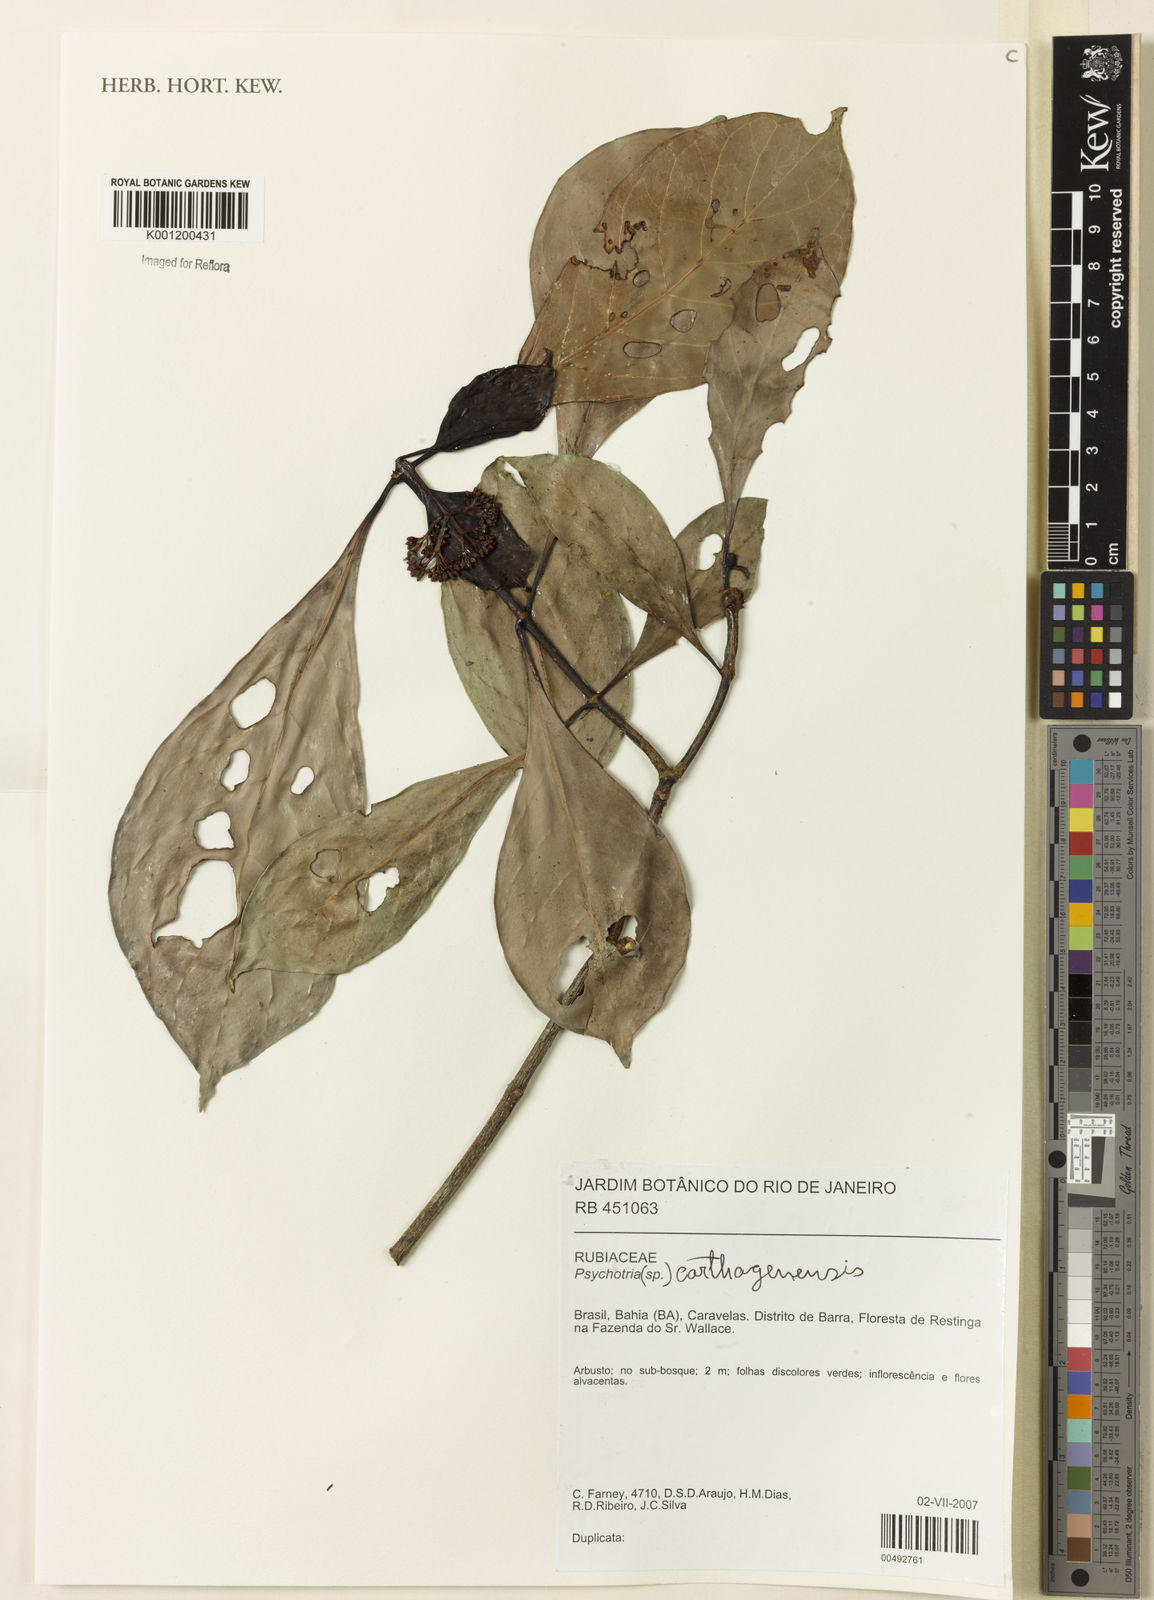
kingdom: Plantae
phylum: Tracheophyta
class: Magnoliopsida
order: Gentianales
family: Rubiaceae
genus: Psychotria
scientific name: Psychotria carthagenensis
